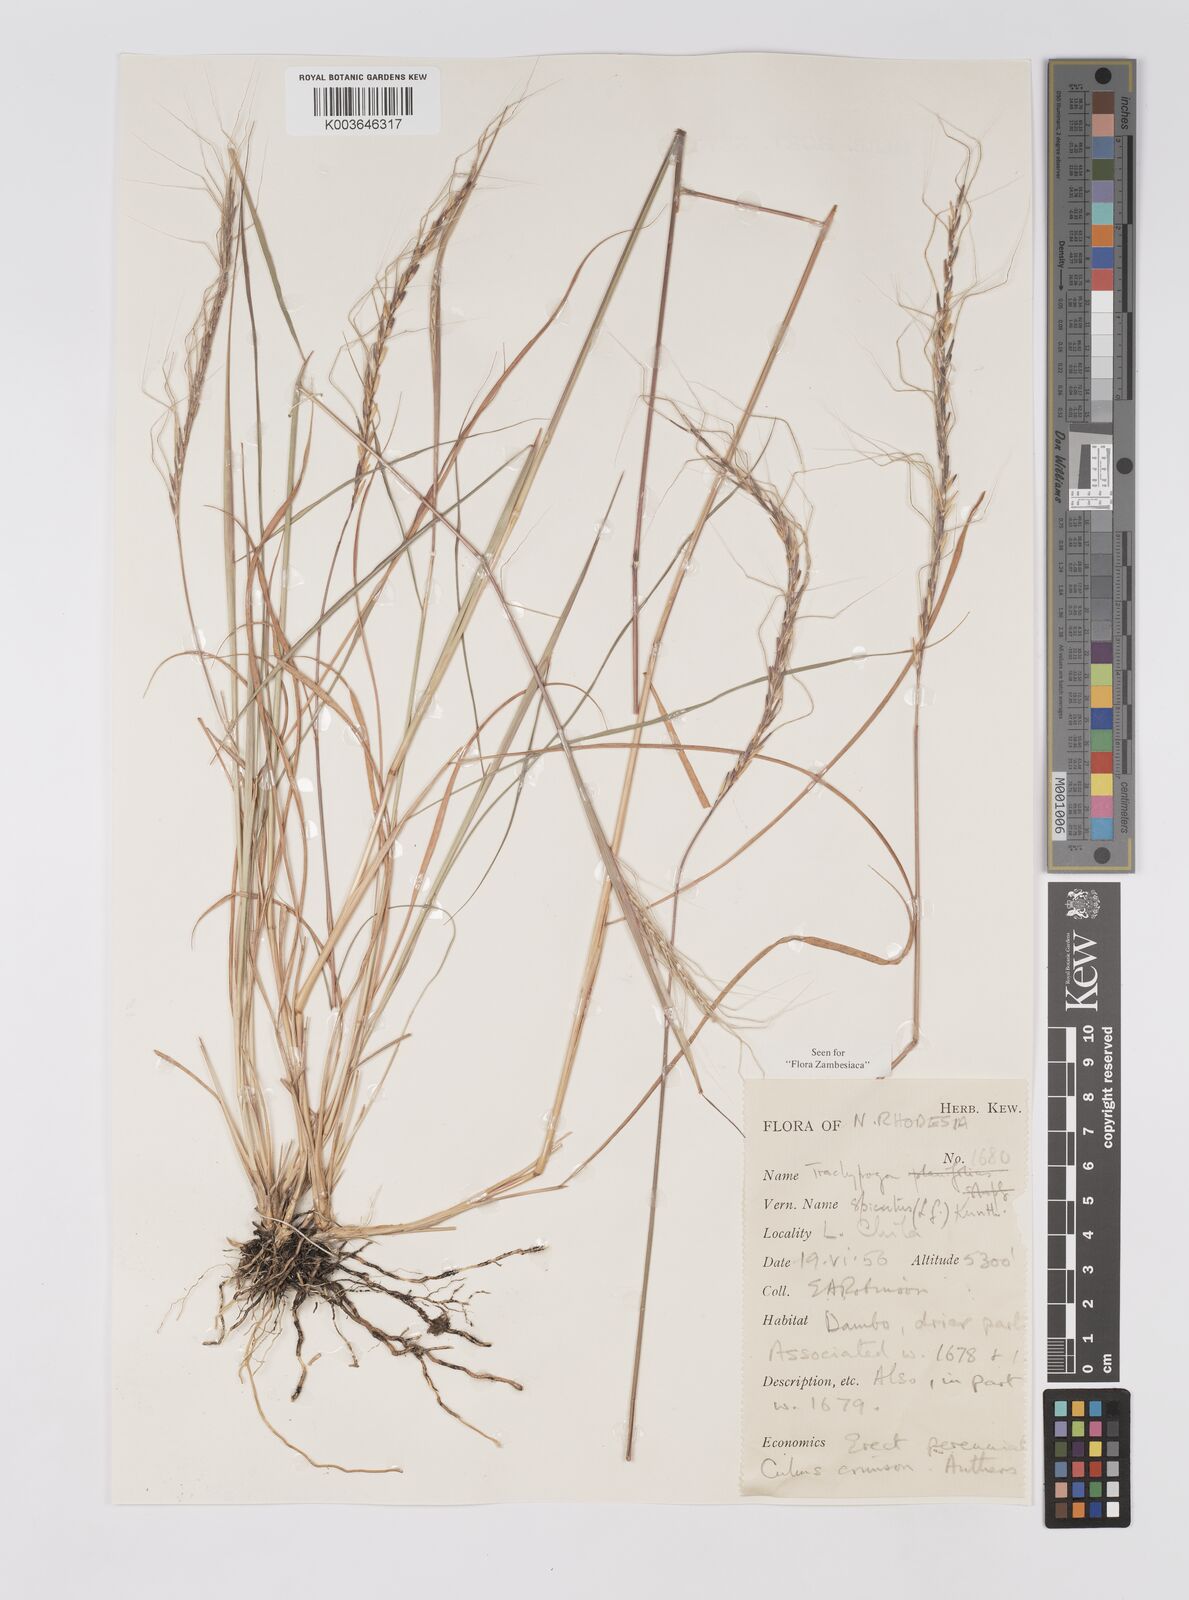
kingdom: Plantae
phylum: Tracheophyta
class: Liliopsida
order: Poales
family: Poaceae
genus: Trachypogon
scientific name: Trachypogon spicatus
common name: Crinkle-awn
